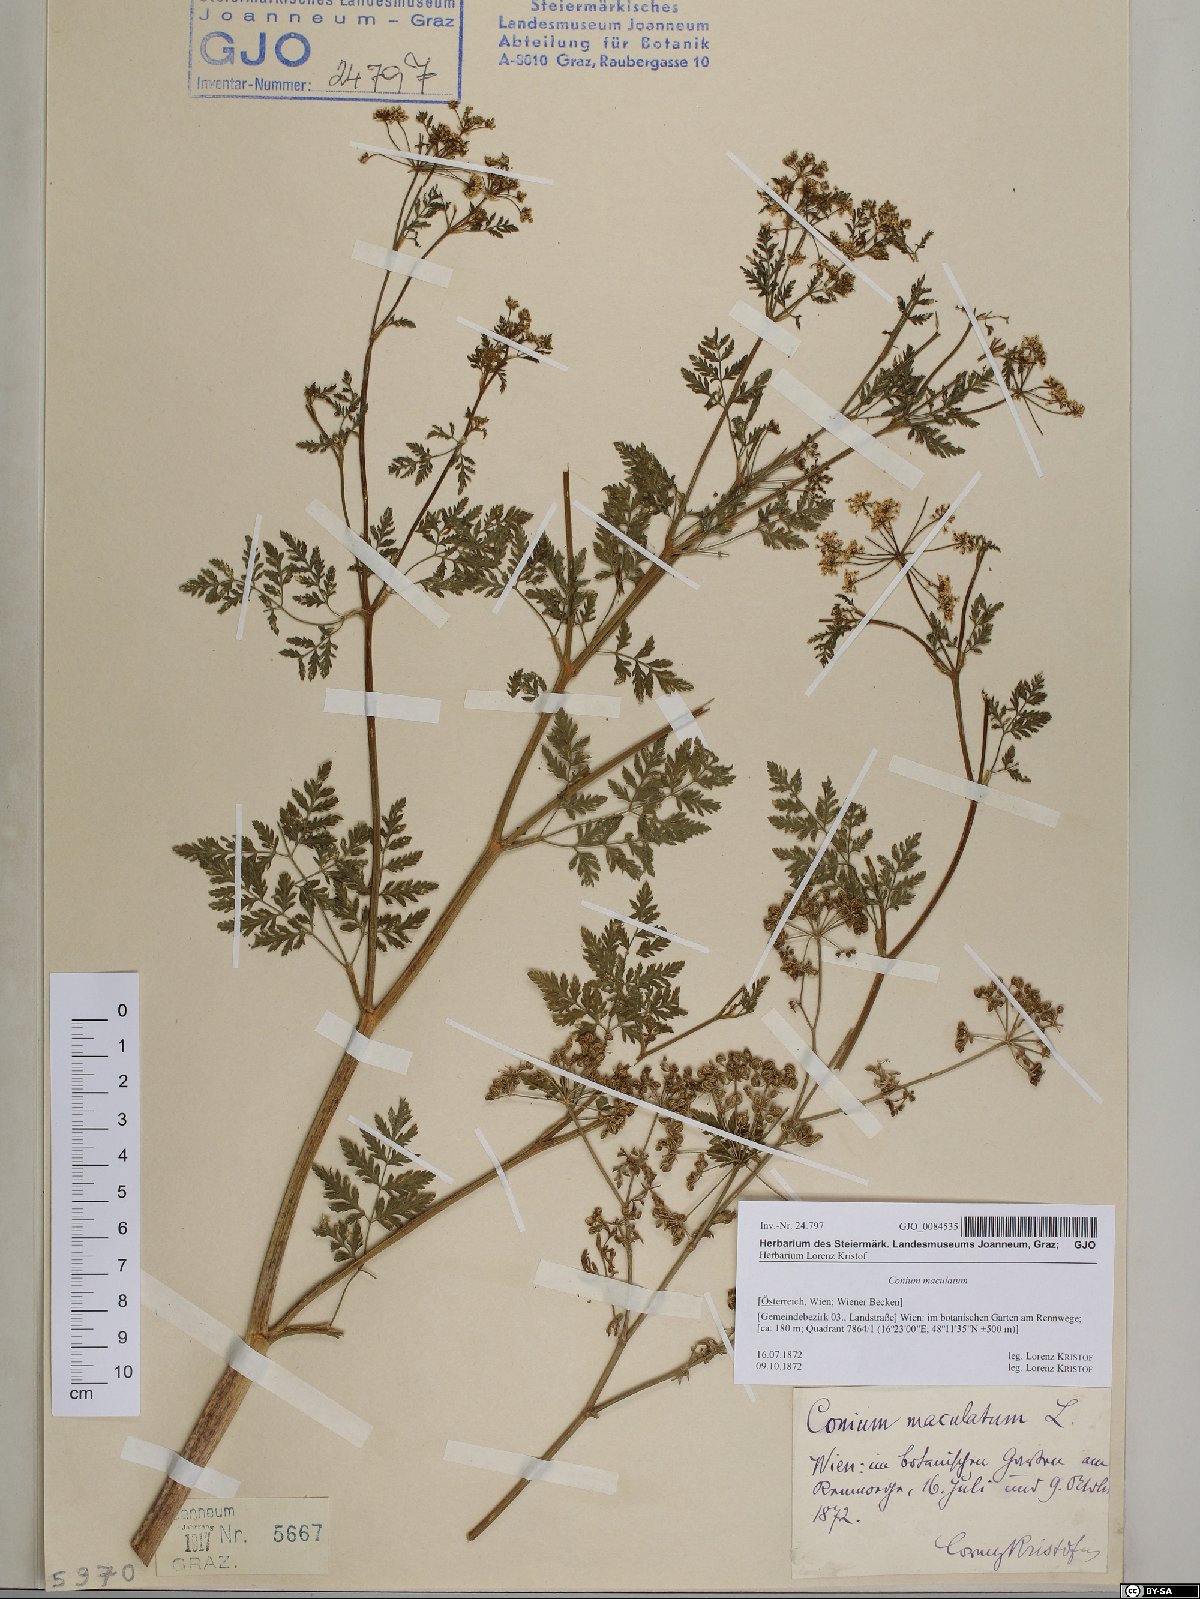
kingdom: Plantae
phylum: Tracheophyta
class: Magnoliopsida
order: Apiales
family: Apiaceae
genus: Conium
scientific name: Conium maculatum
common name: Hemlock
